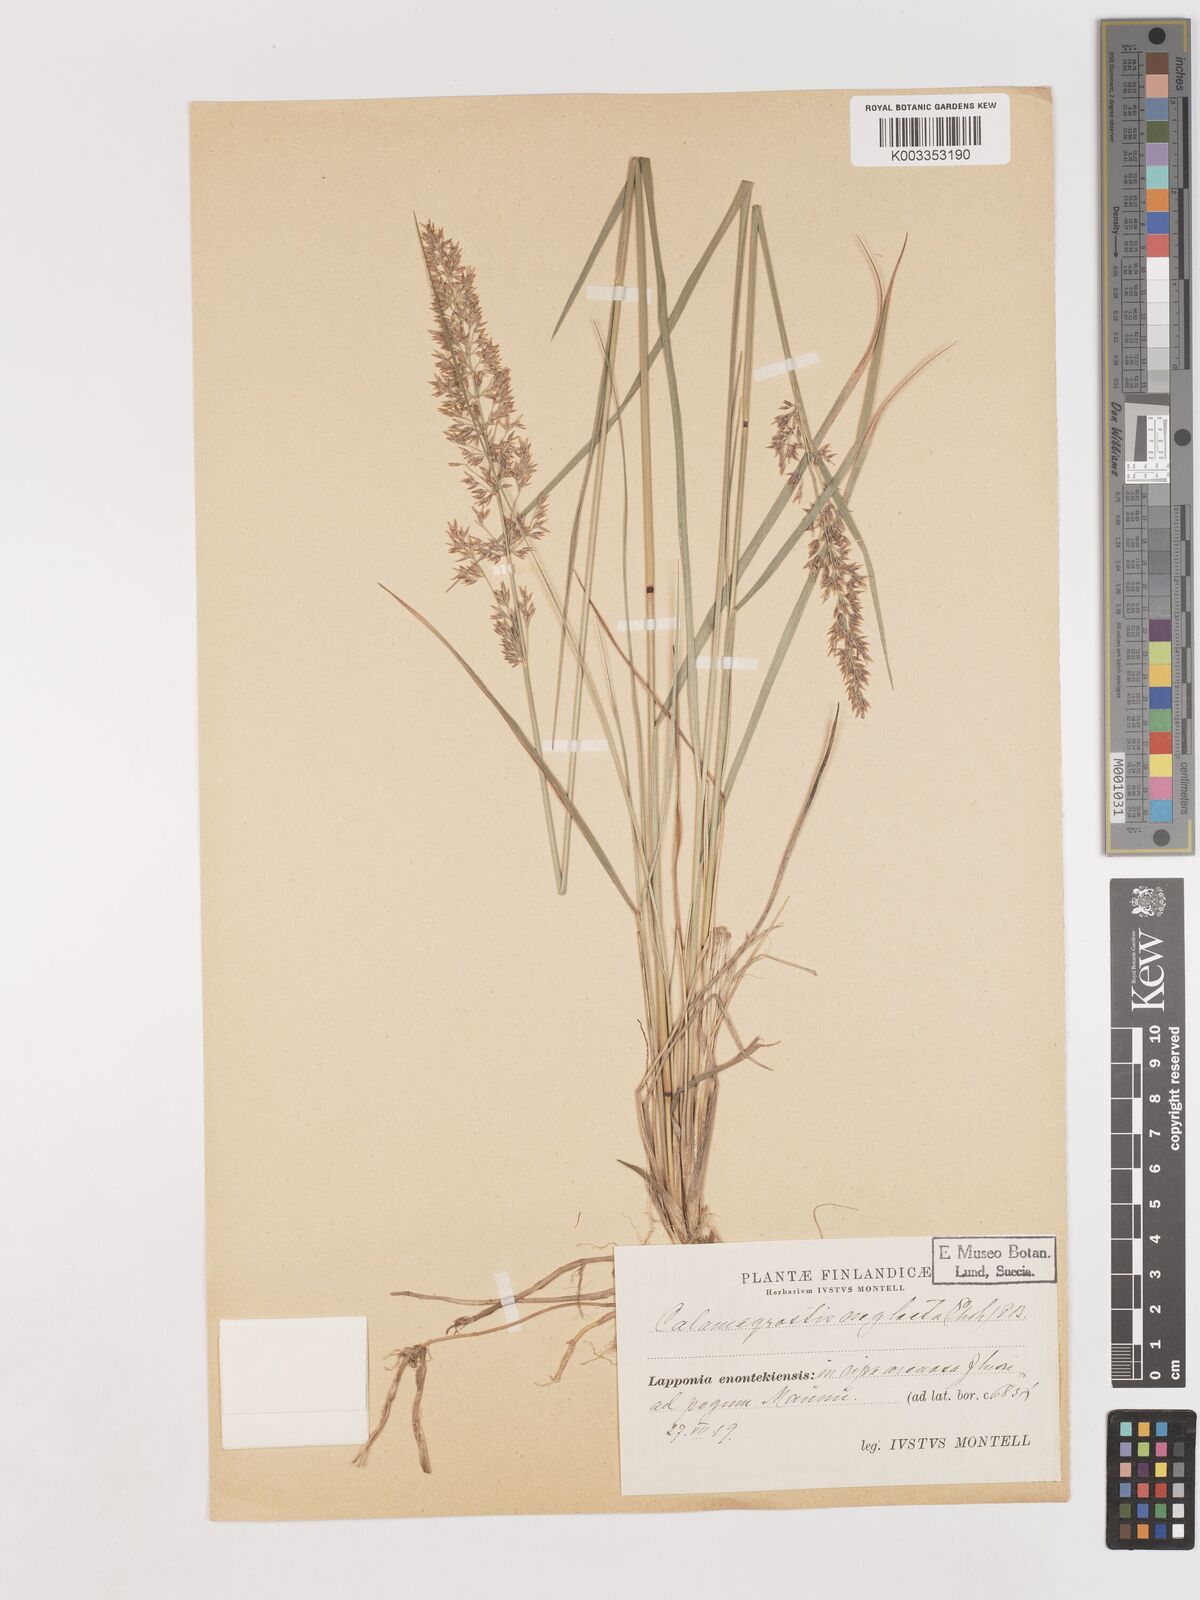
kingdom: Plantae
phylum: Tracheophyta
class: Liliopsida
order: Poales
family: Poaceae
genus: Cinnagrostis
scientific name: Cinnagrostis recta
